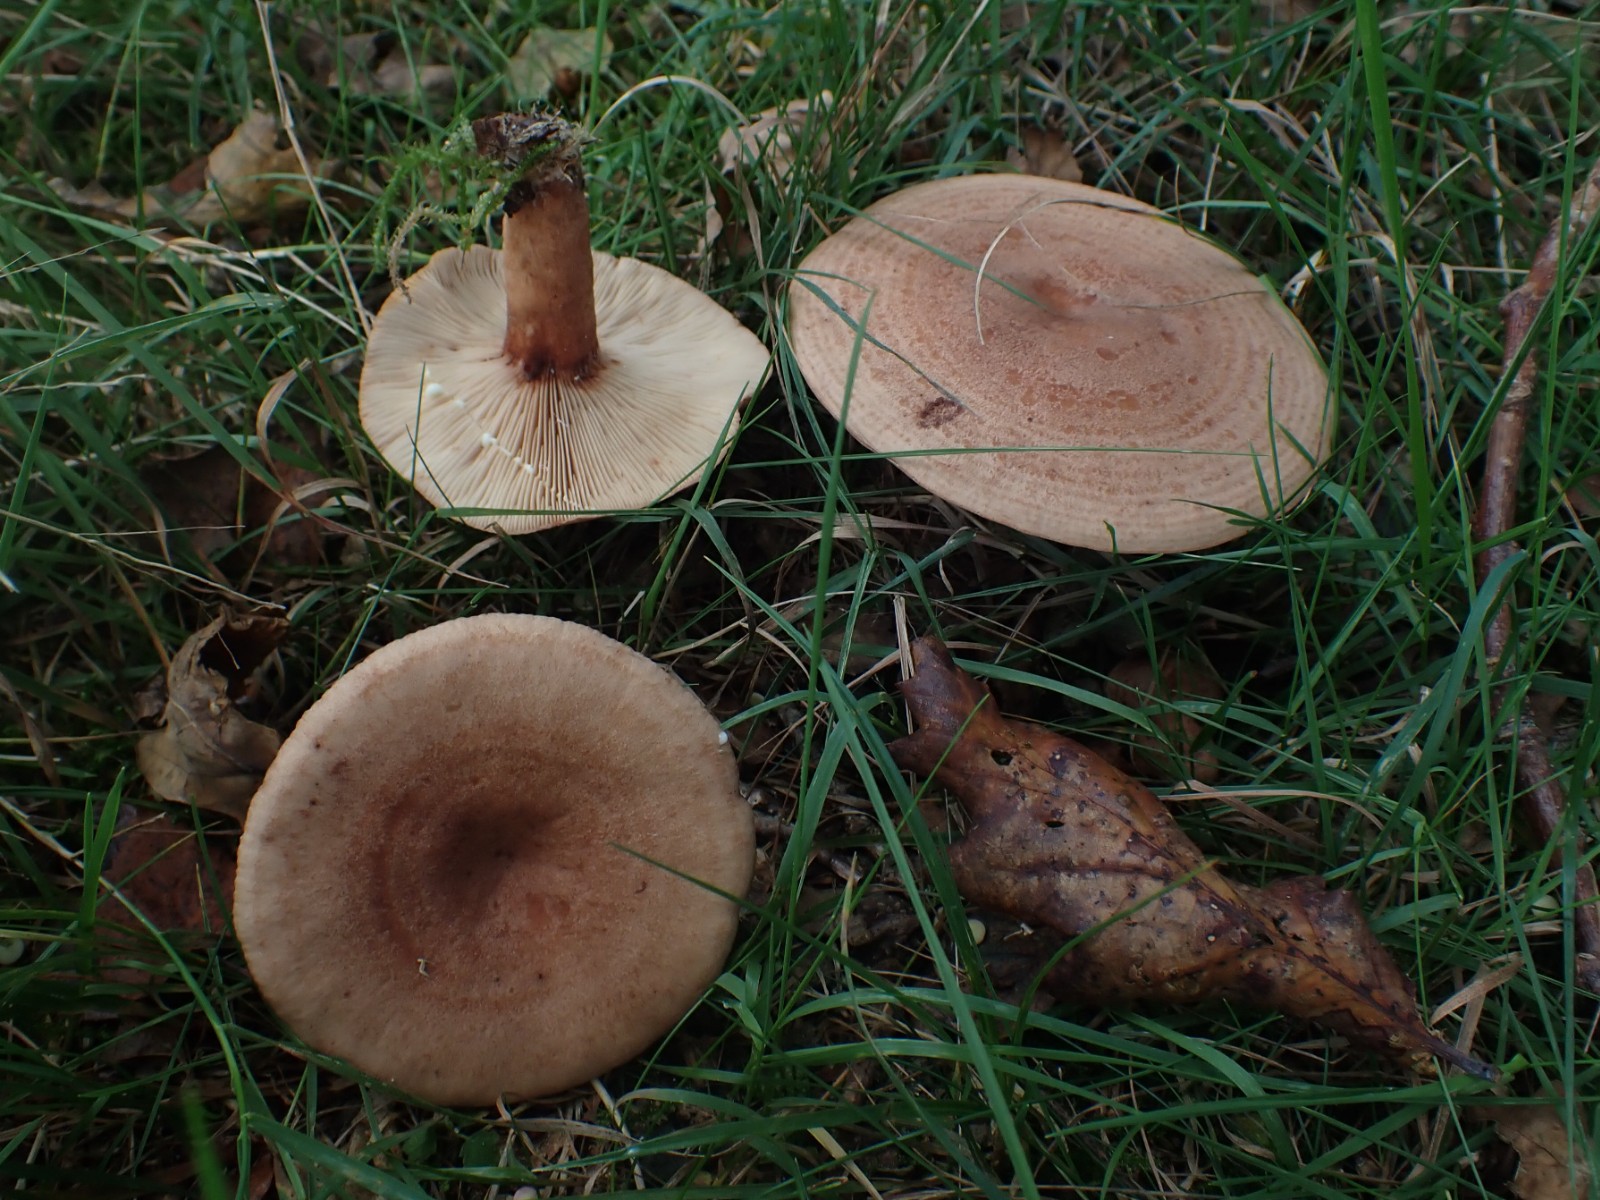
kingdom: Fungi
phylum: Basidiomycota
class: Agaricomycetes
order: Russulales
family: Russulaceae
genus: Lactarius
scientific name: Lactarius quietus
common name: ege-mælkehat
